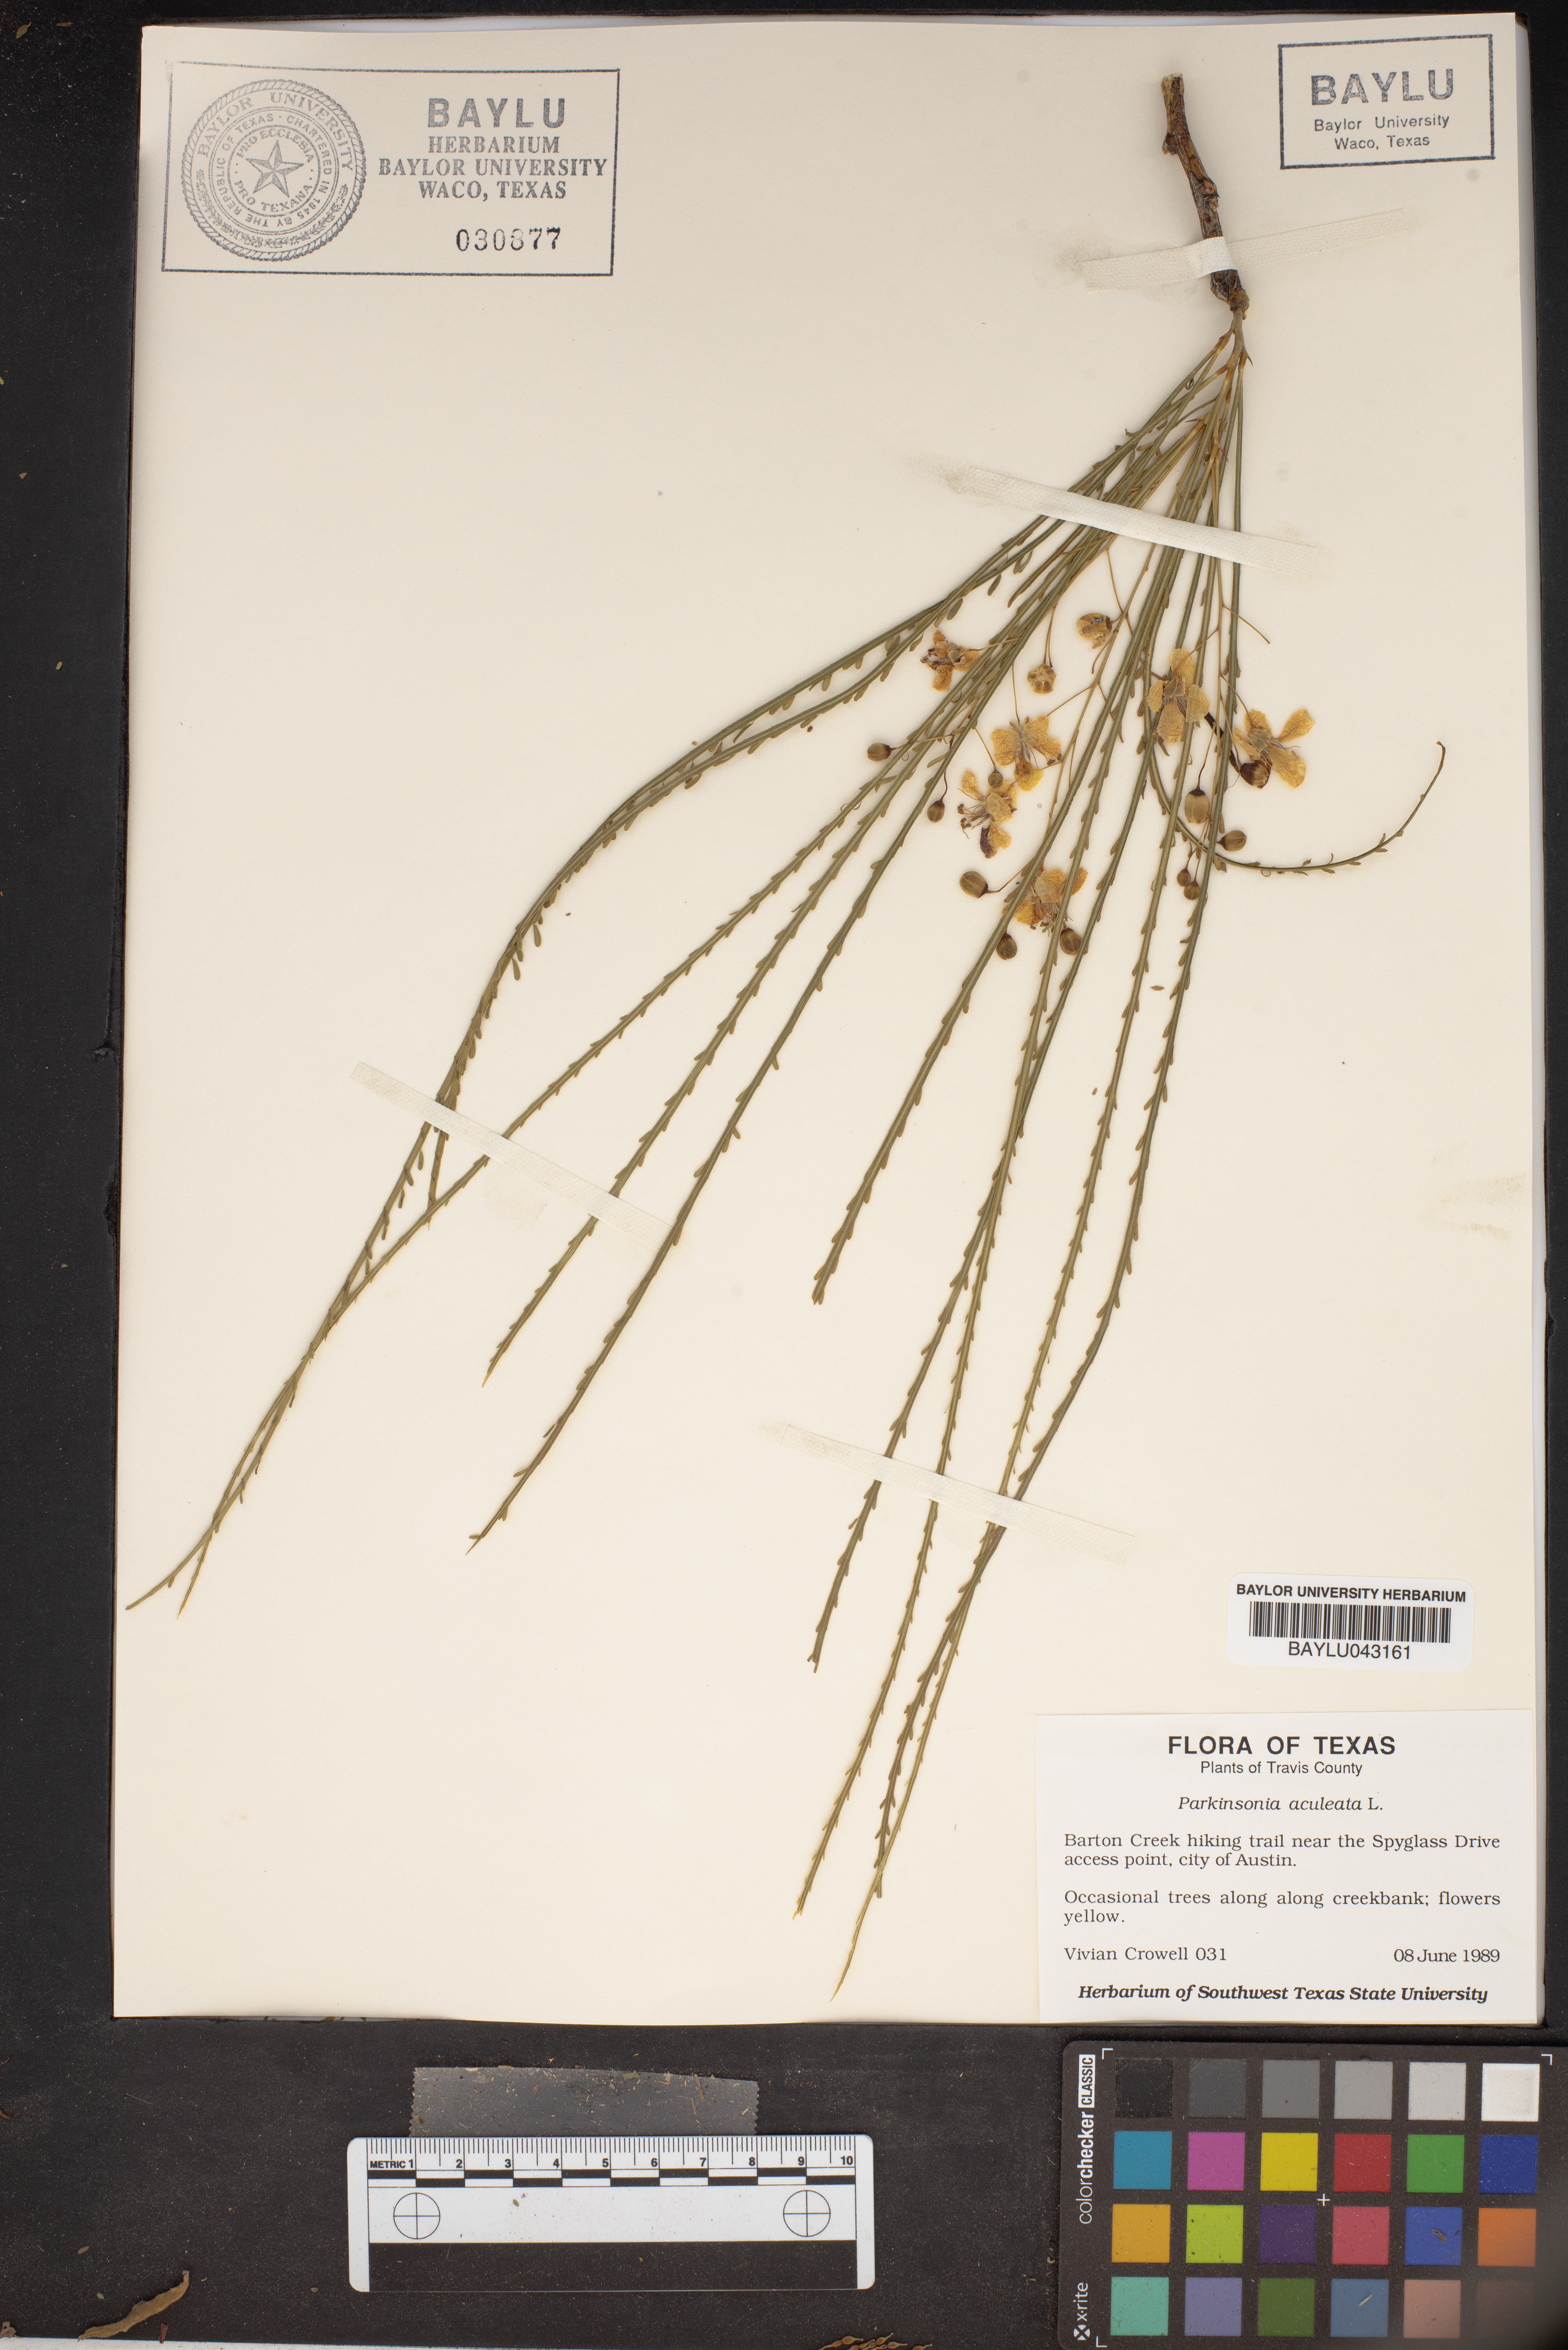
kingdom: Plantae
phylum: Tracheophyta
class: Magnoliopsida
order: Fabales
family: Fabaceae
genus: Parkinsonia
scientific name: Parkinsonia aculeata
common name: Jerusalem thorn
